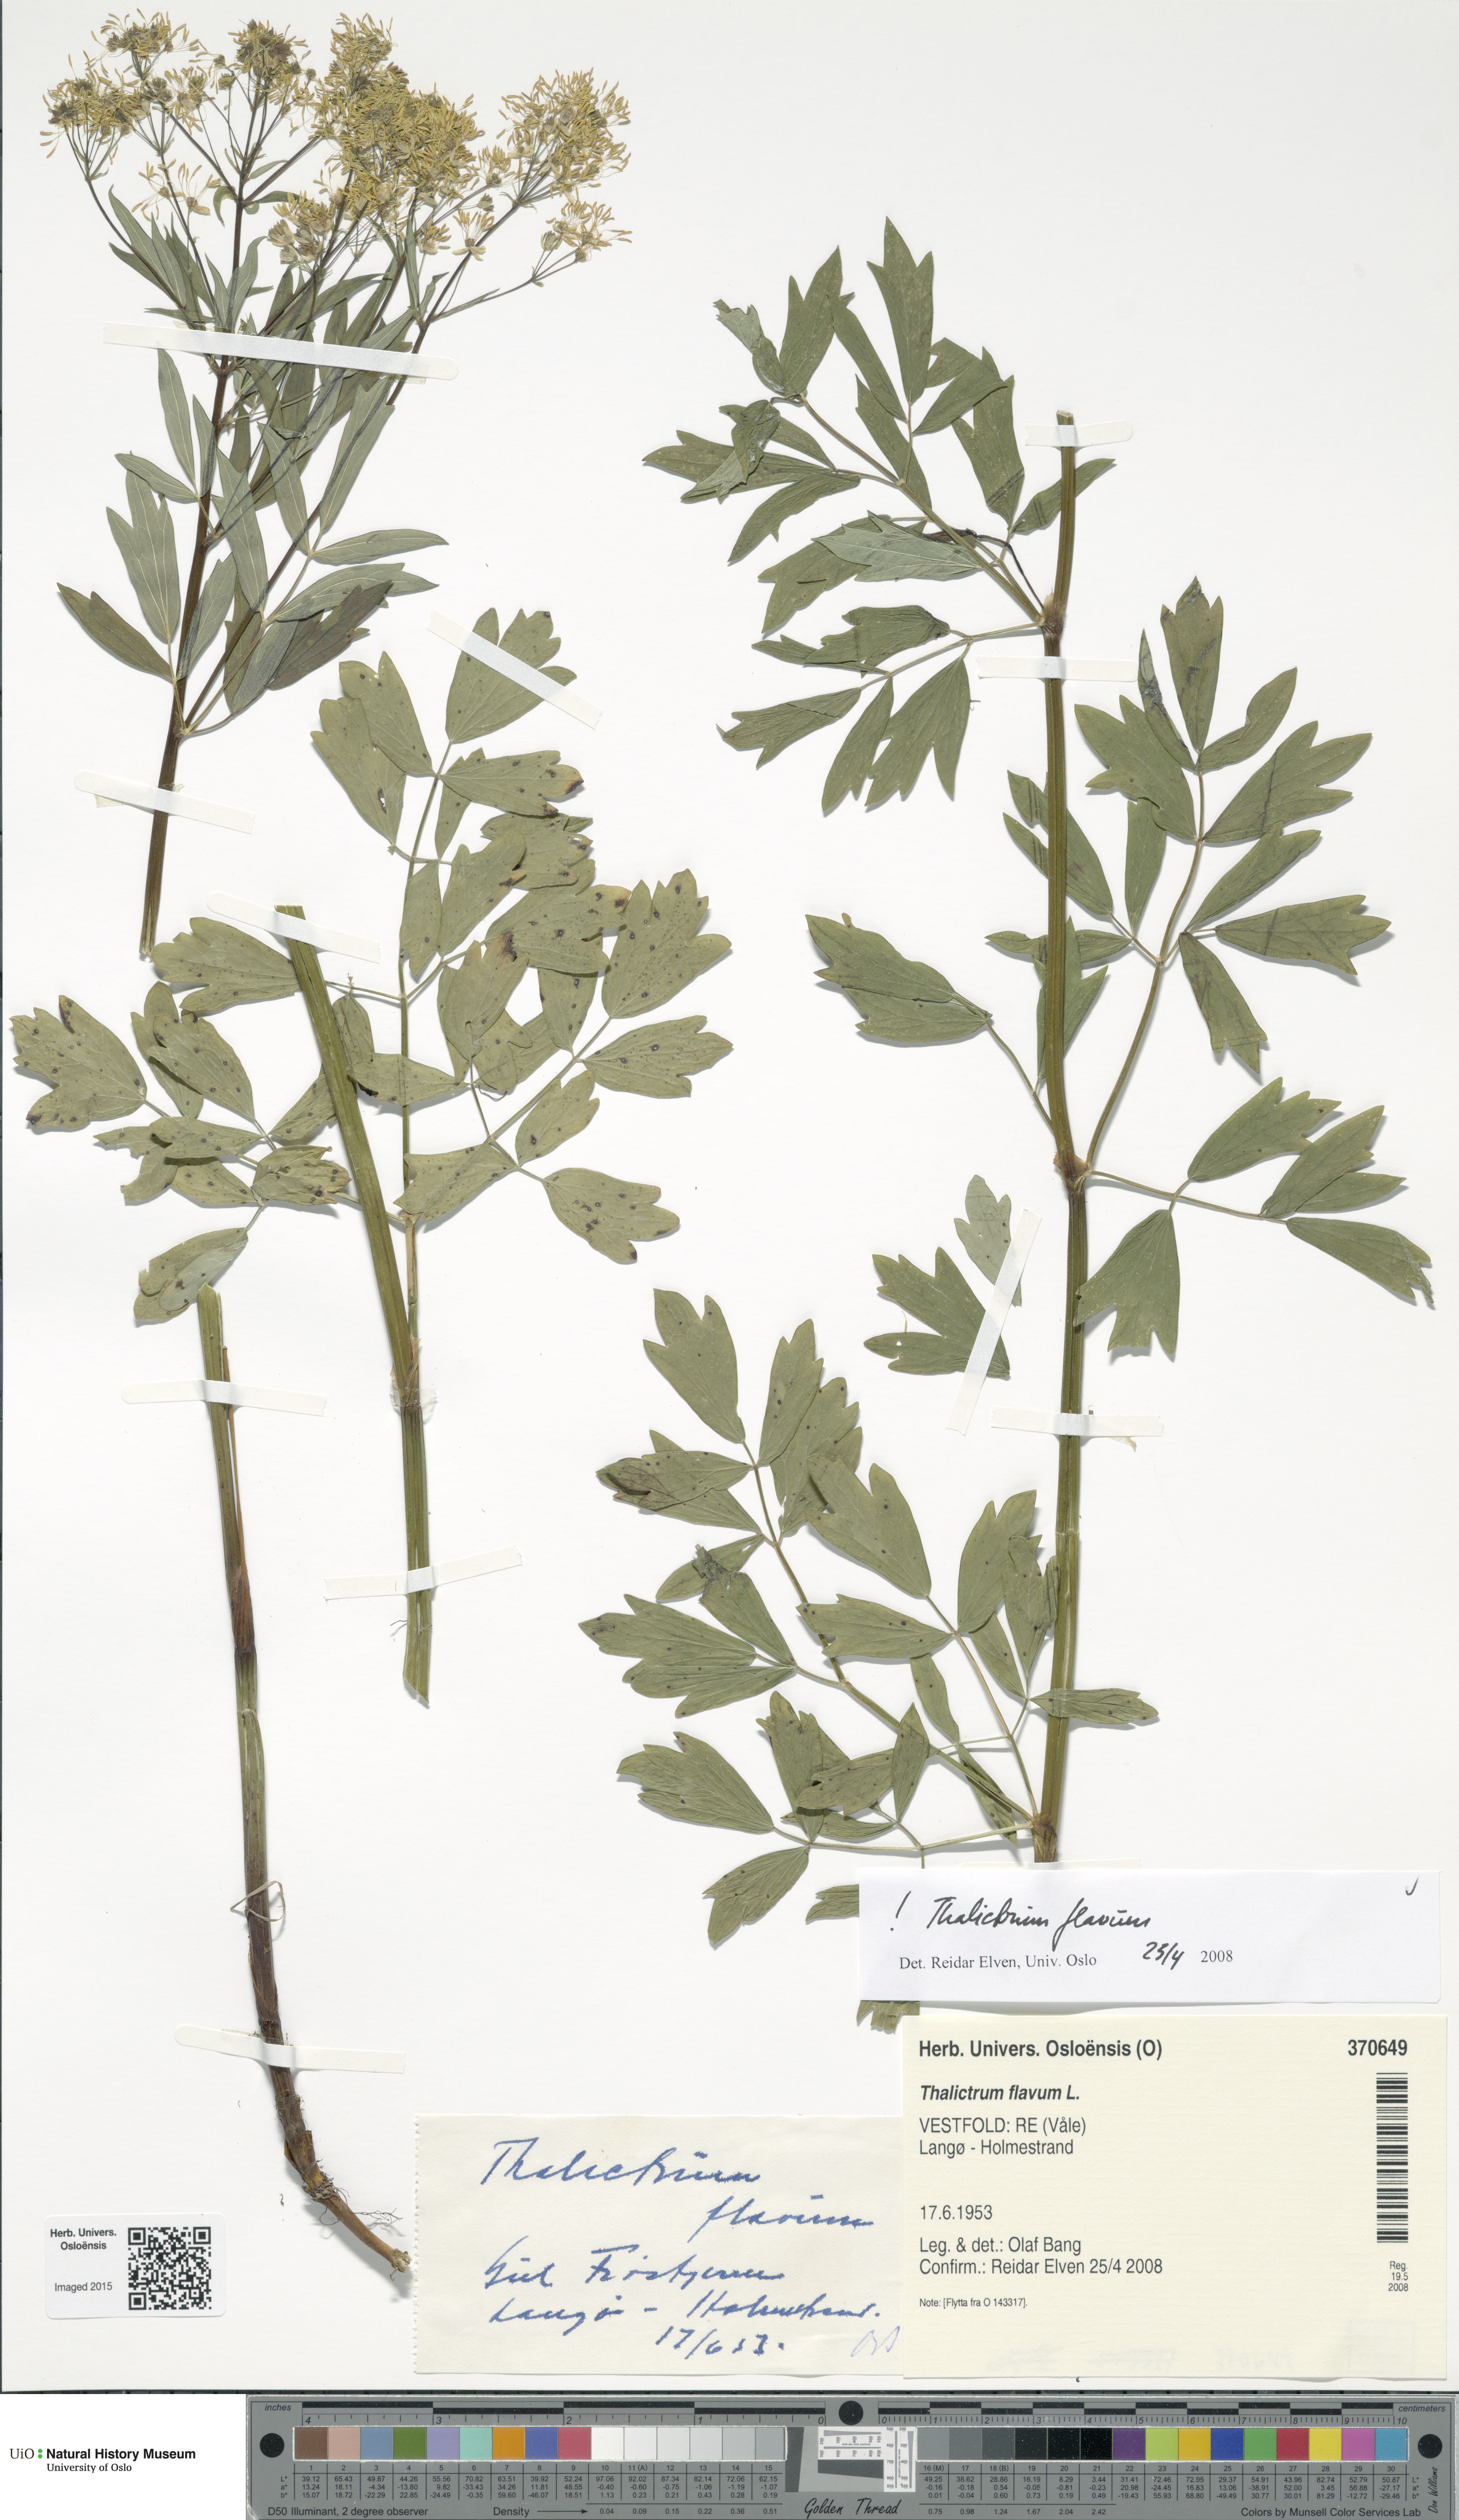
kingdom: Plantae
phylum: Tracheophyta
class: Magnoliopsida
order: Ranunculales
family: Ranunculaceae
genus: Thalictrum
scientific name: Thalictrum flavum
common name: Common meadow-rue
